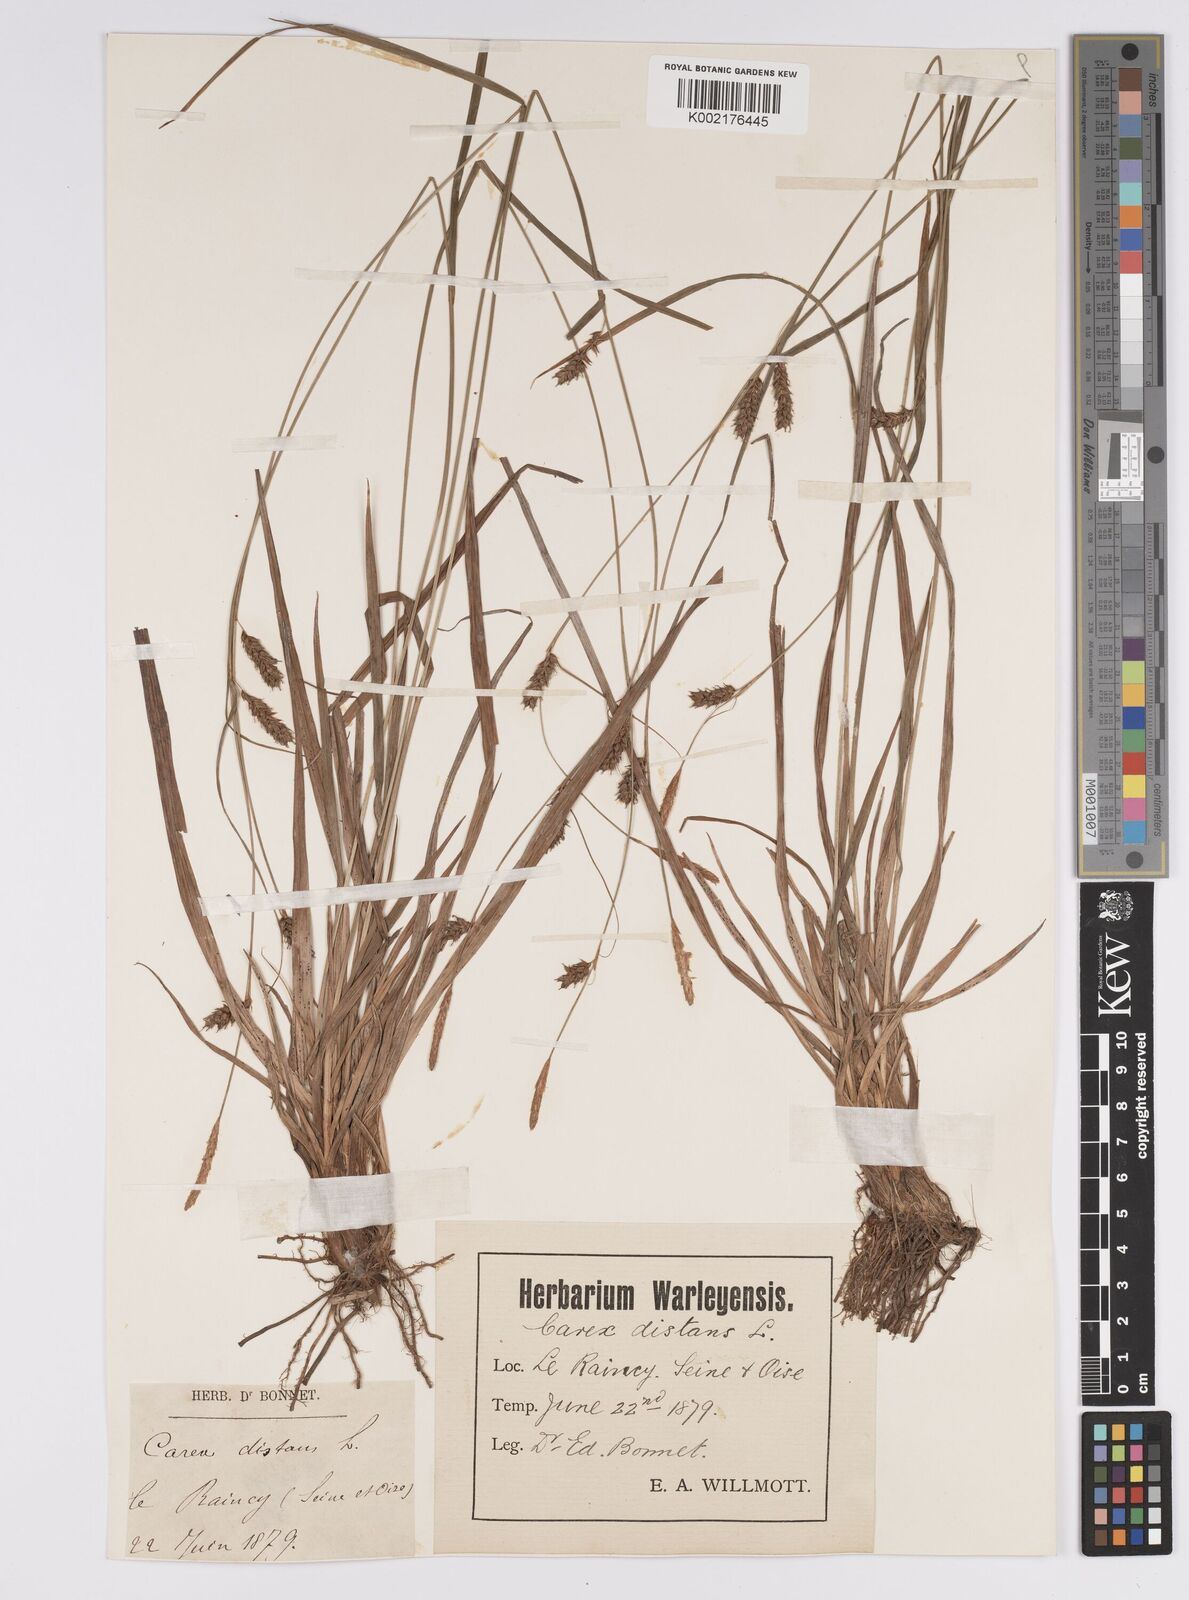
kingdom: Plantae
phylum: Tracheophyta
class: Liliopsida
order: Poales
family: Cyperaceae
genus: Carex
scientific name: Carex distans
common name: Distant sedge
